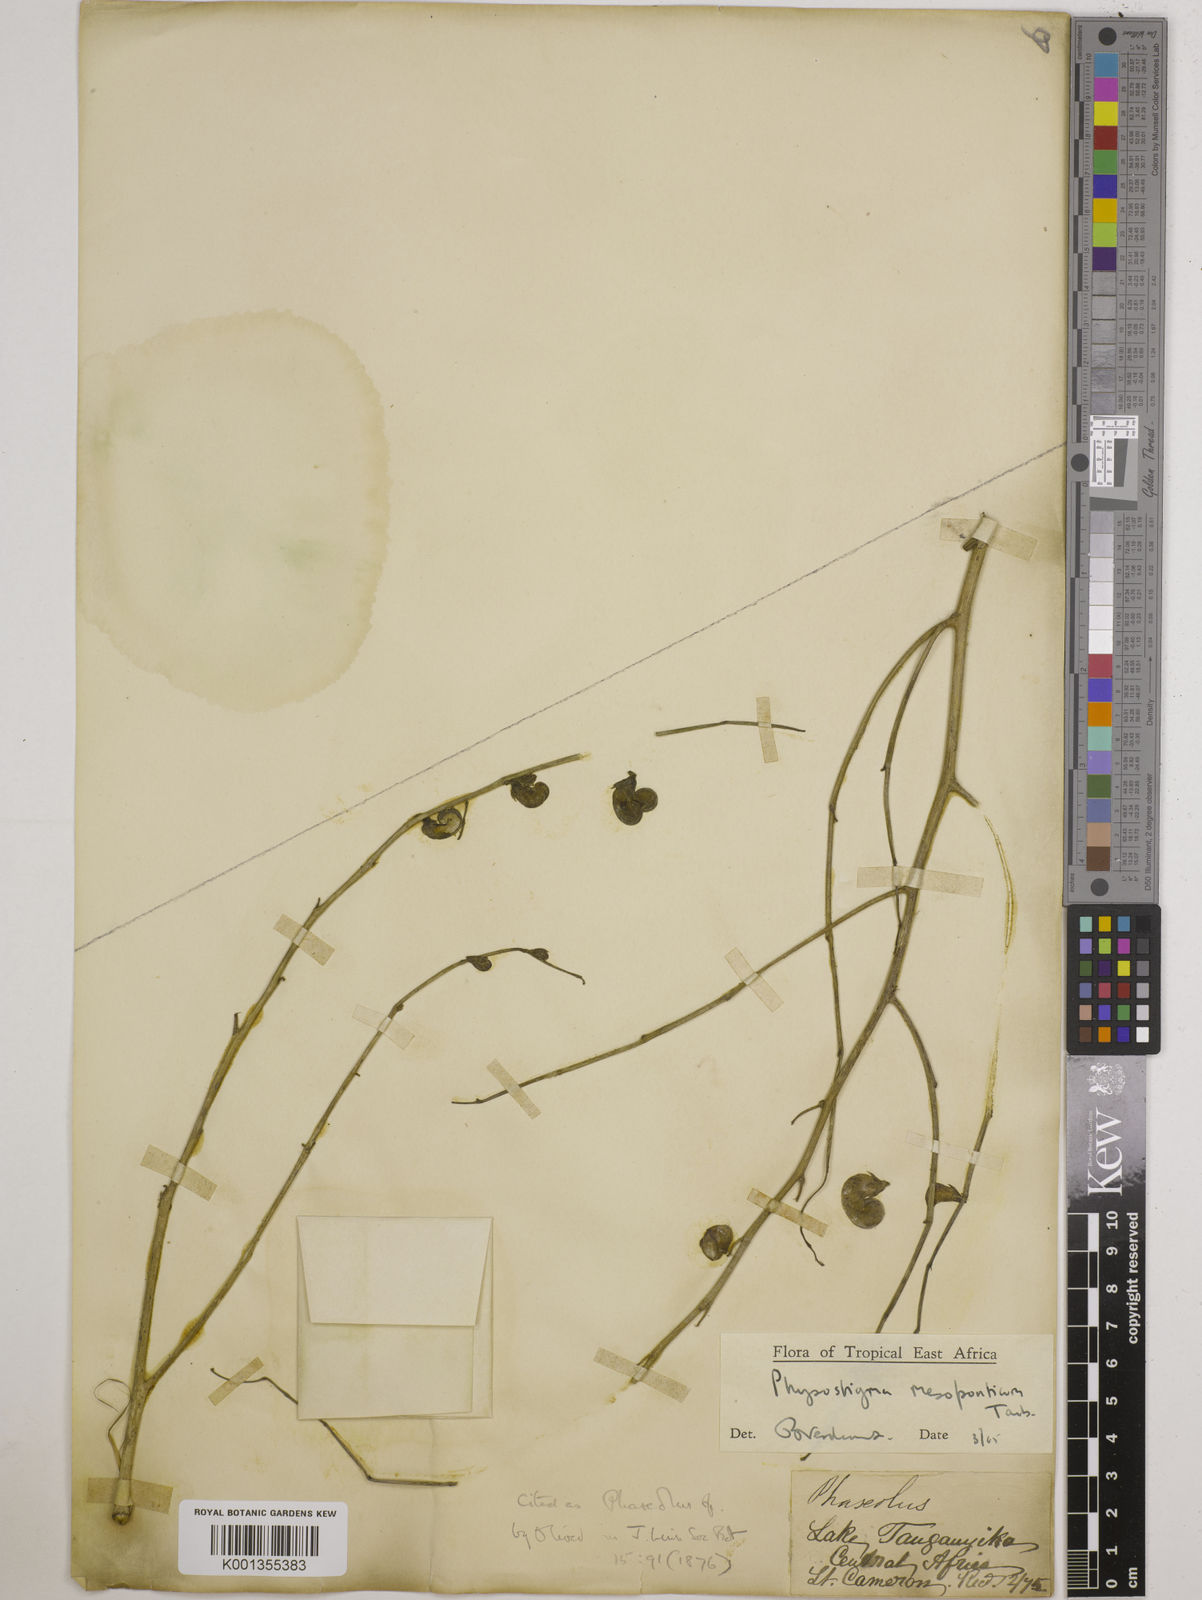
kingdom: Plantae
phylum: Tracheophyta
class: Magnoliopsida
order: Fabales
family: Fabaceae
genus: Physostigma
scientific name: Physostigma mesoponticum
